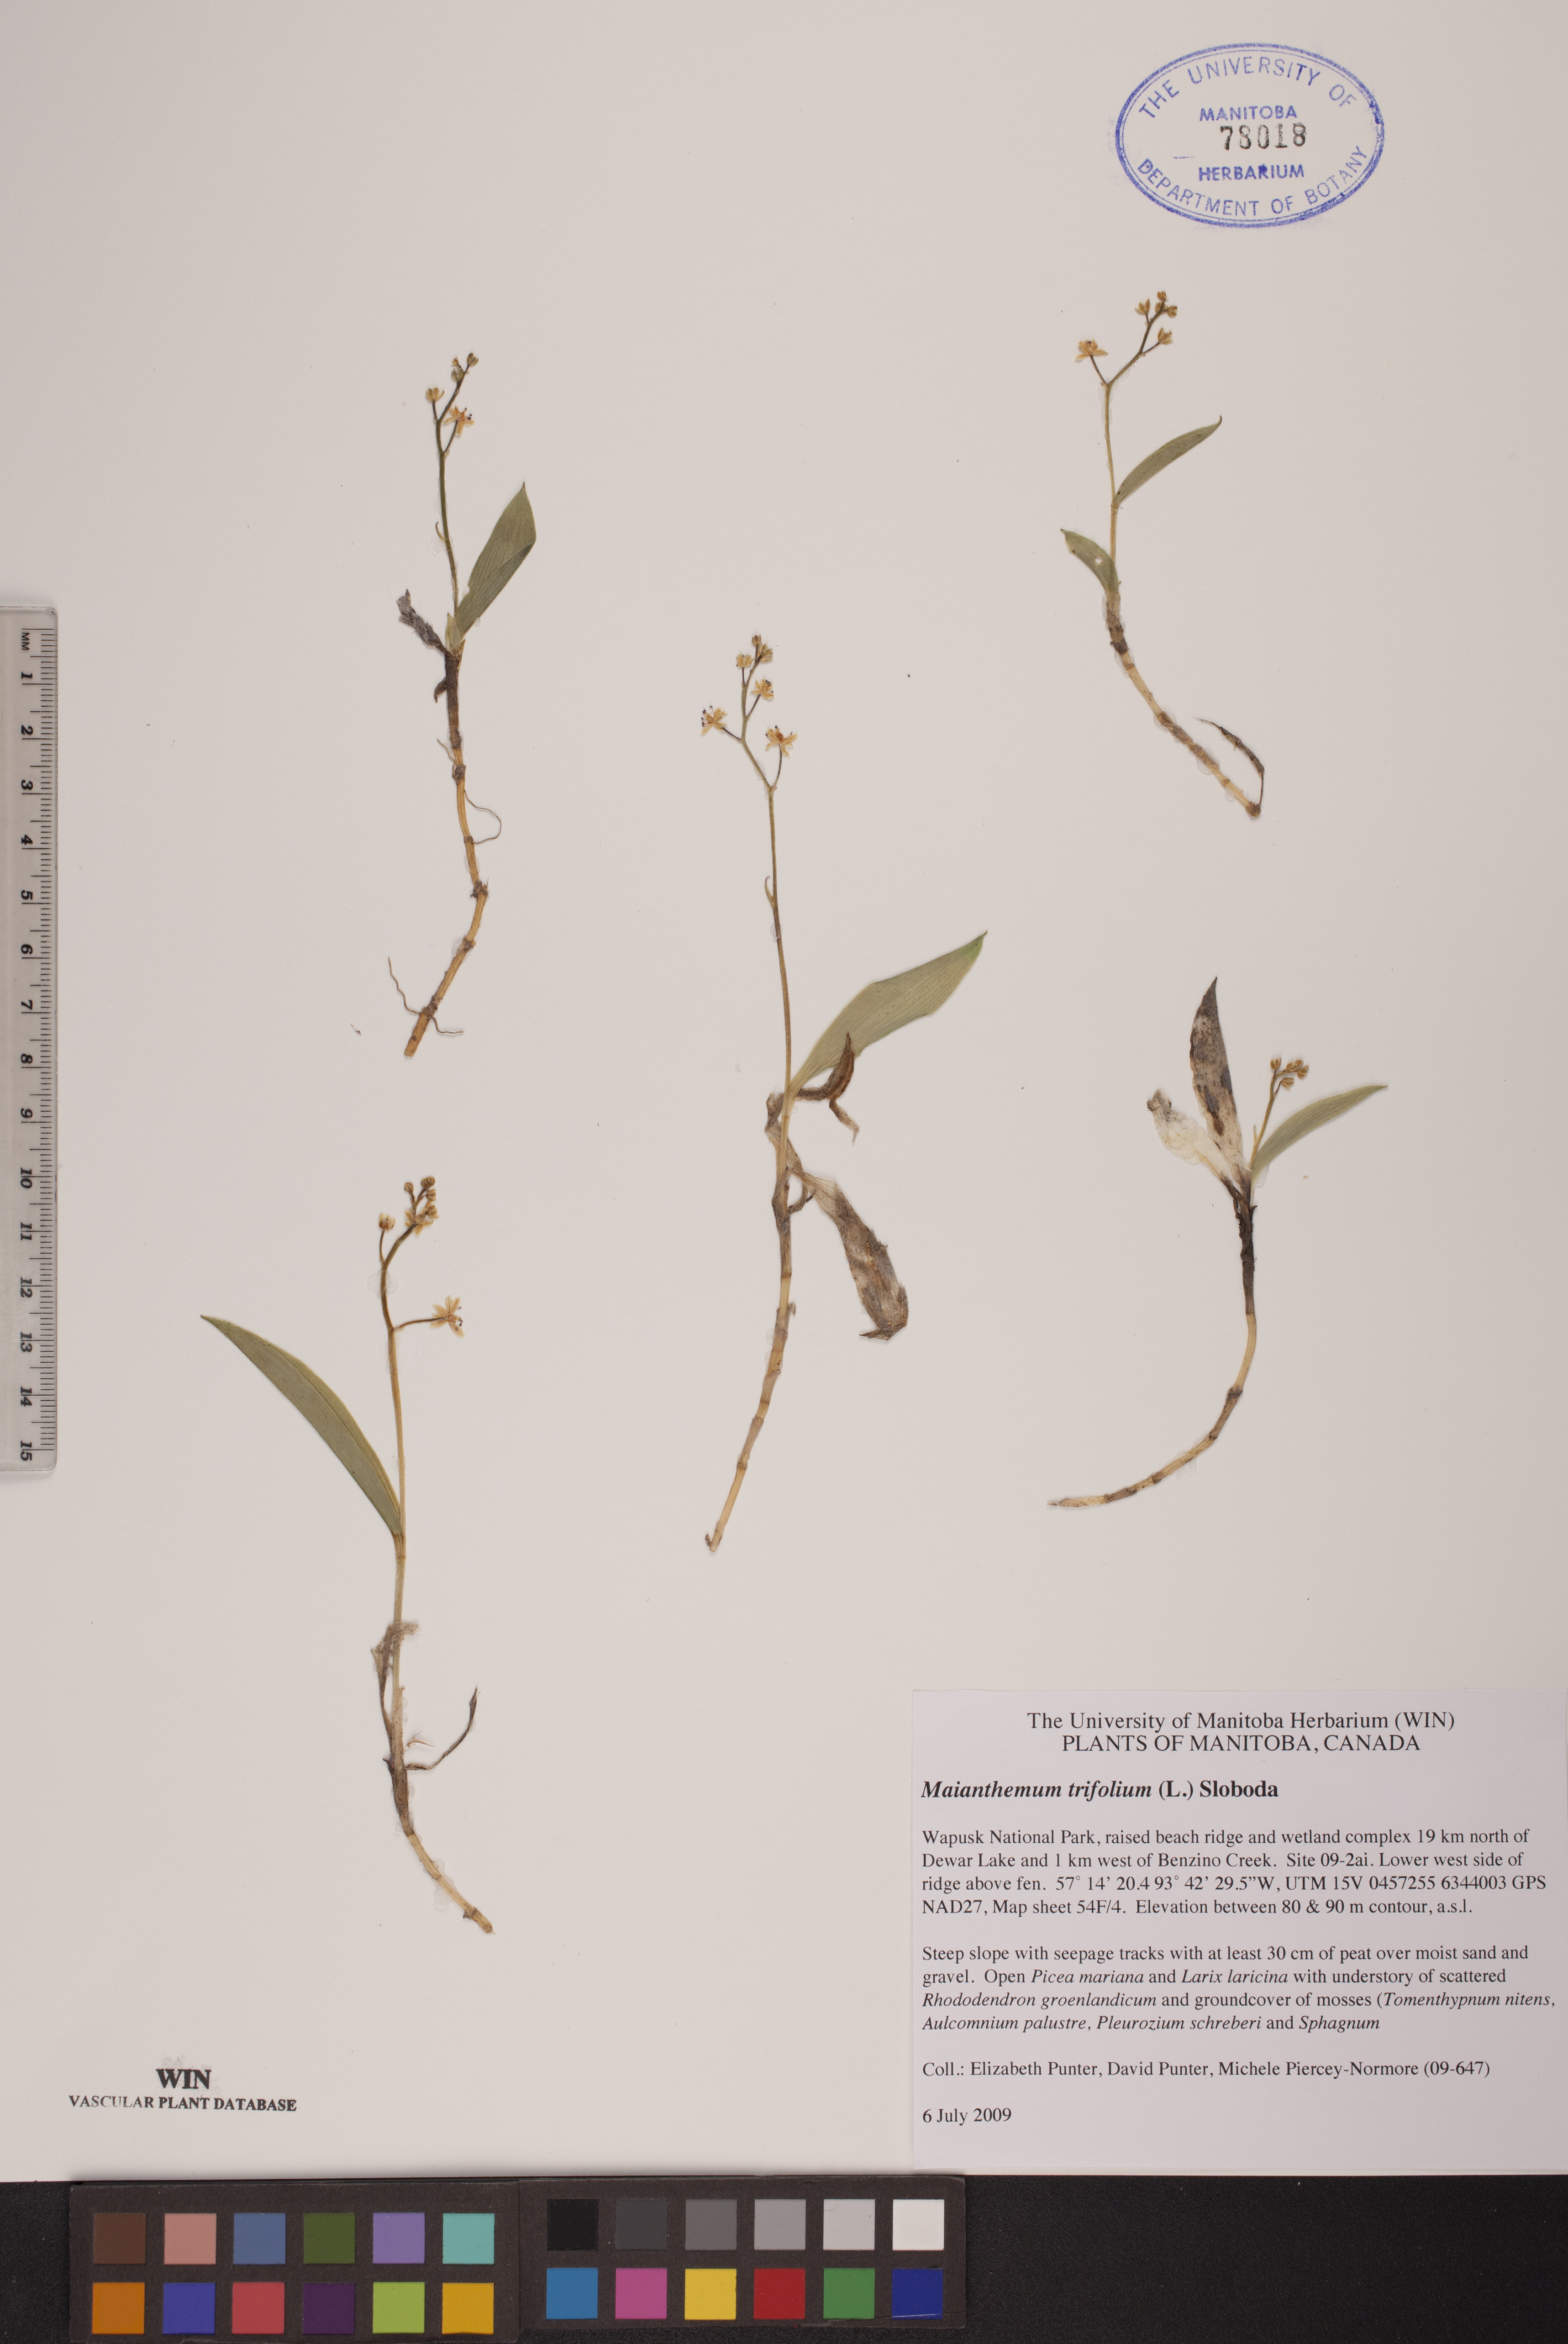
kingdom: Plantae
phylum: Tracheophyta
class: Liliopsida
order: Asparagales
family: Asparagaceae
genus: Maianthemum
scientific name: Maianthemum trifolium
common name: Swamp false solomon's seal
